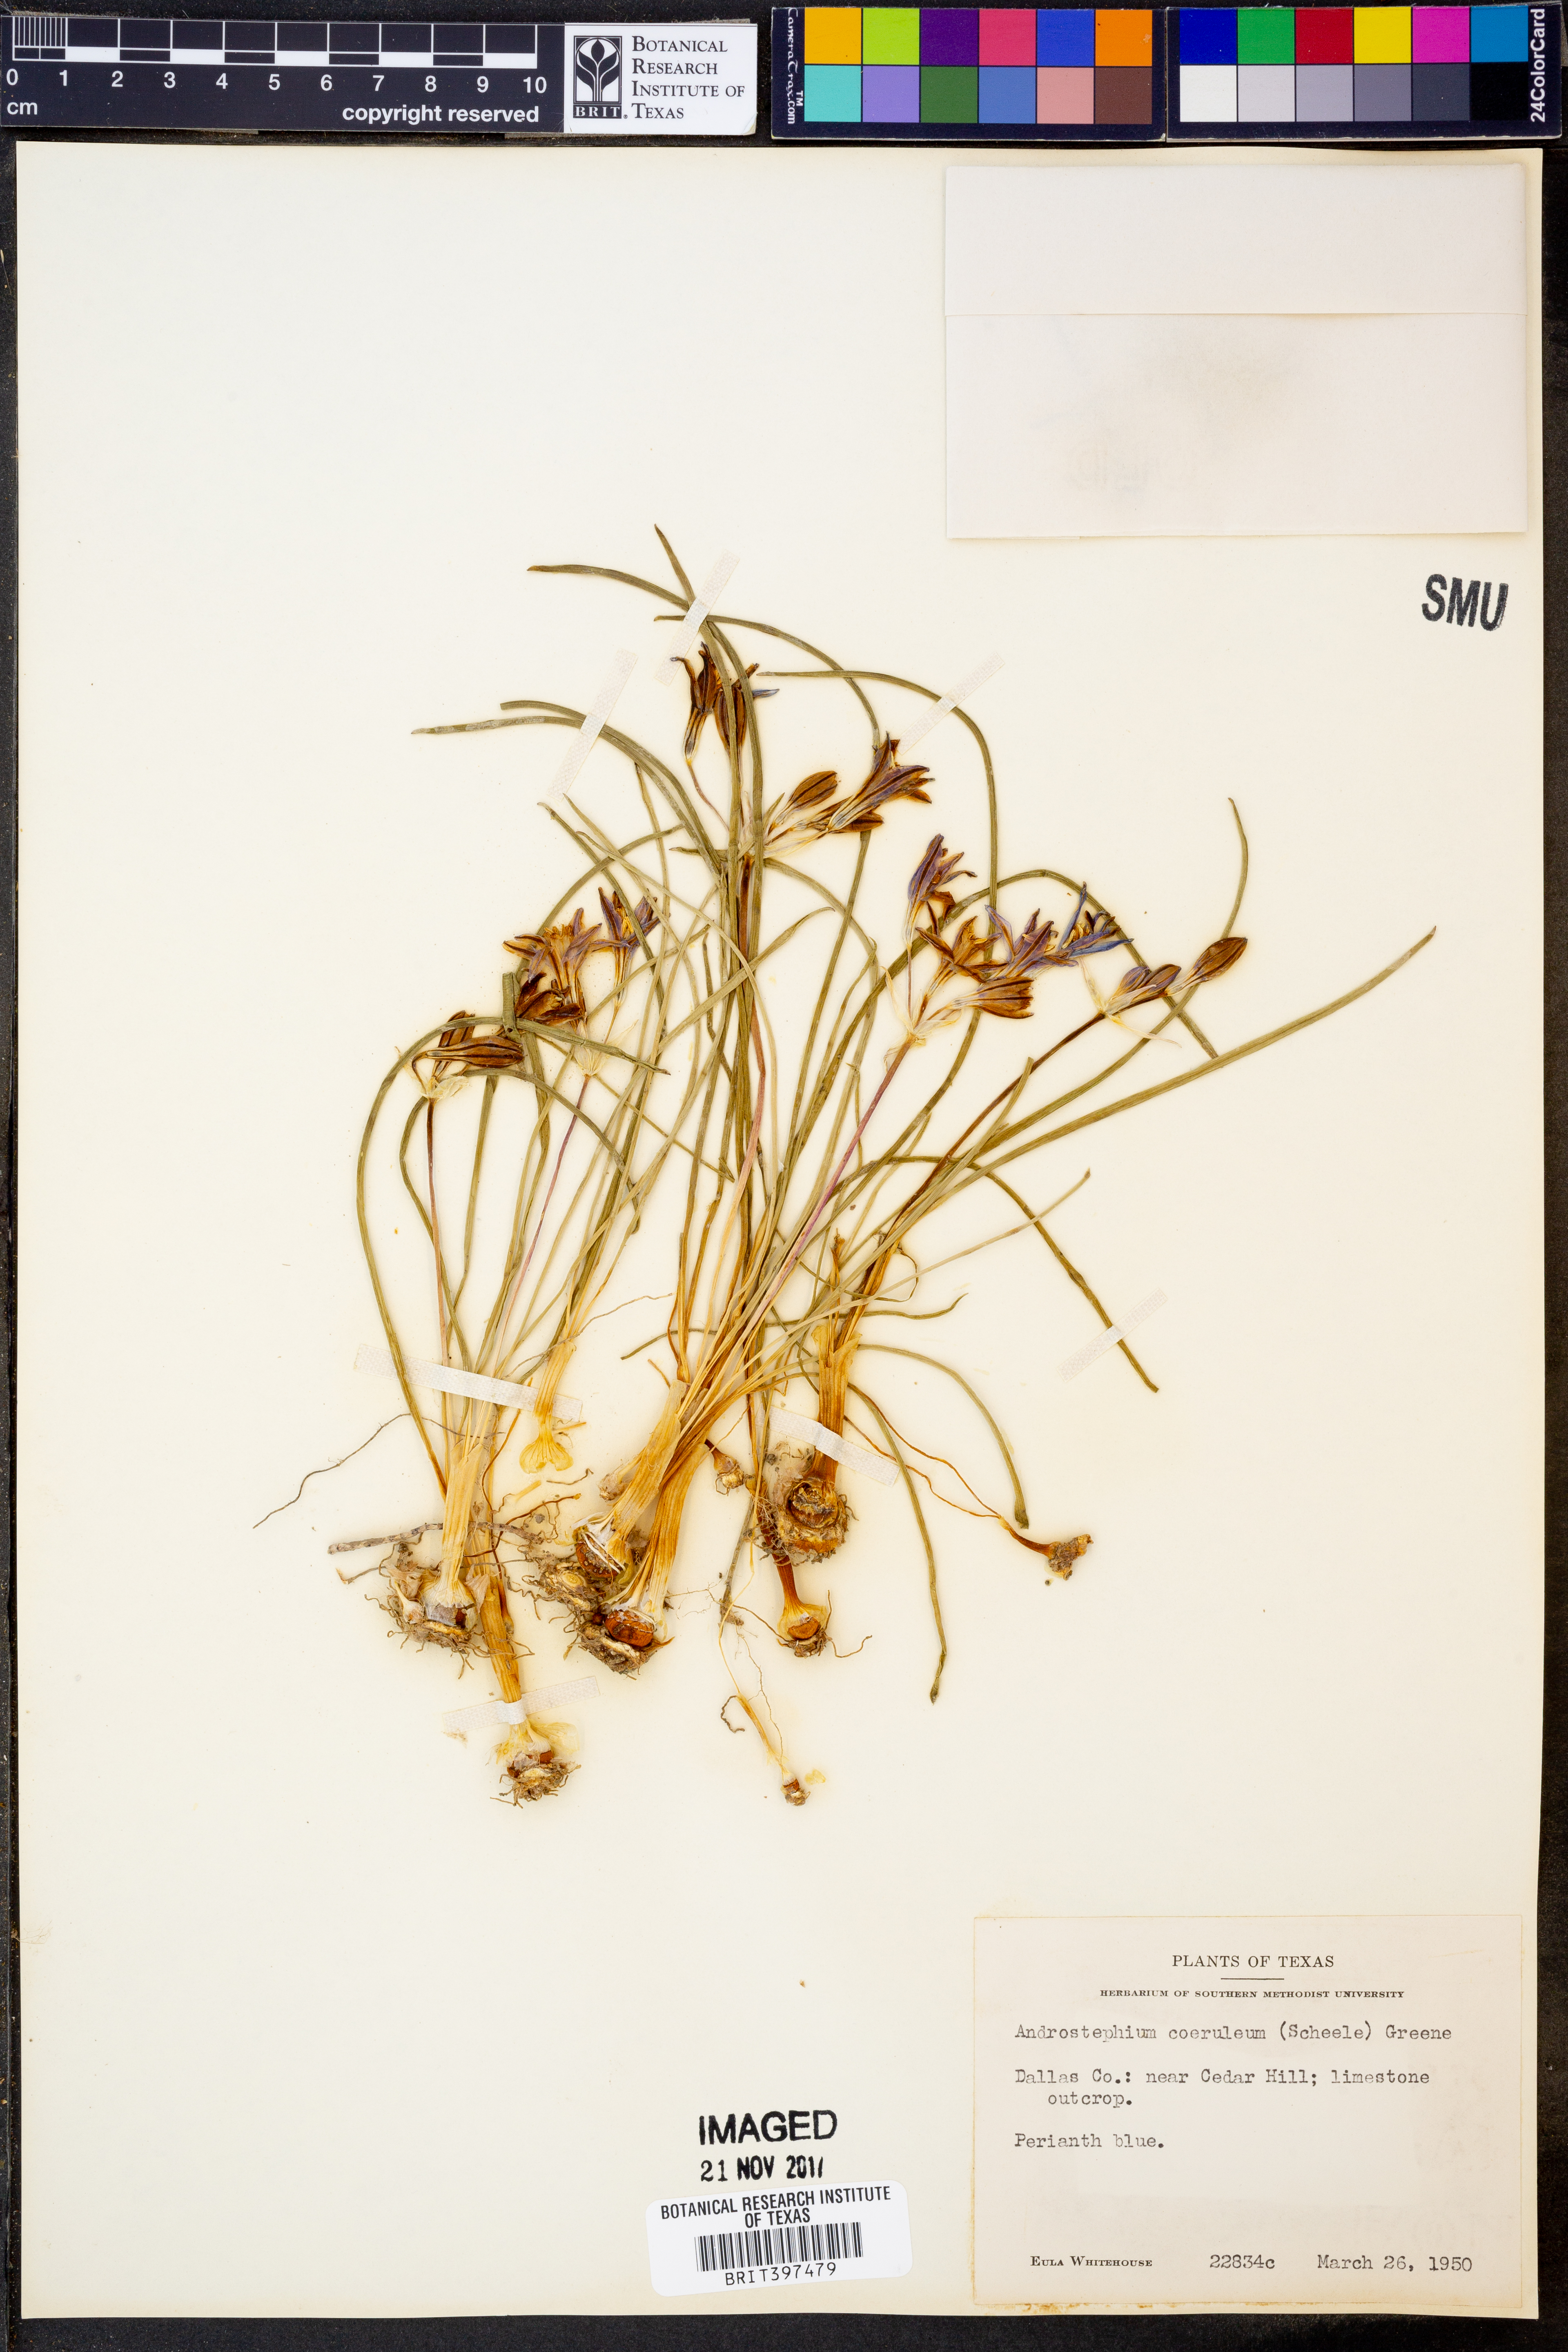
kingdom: Plantae
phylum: Tracheophyta
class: Liliopsida
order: Asparagales
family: Asparagaceae
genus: Androstephium
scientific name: Androstephium coeruleum
